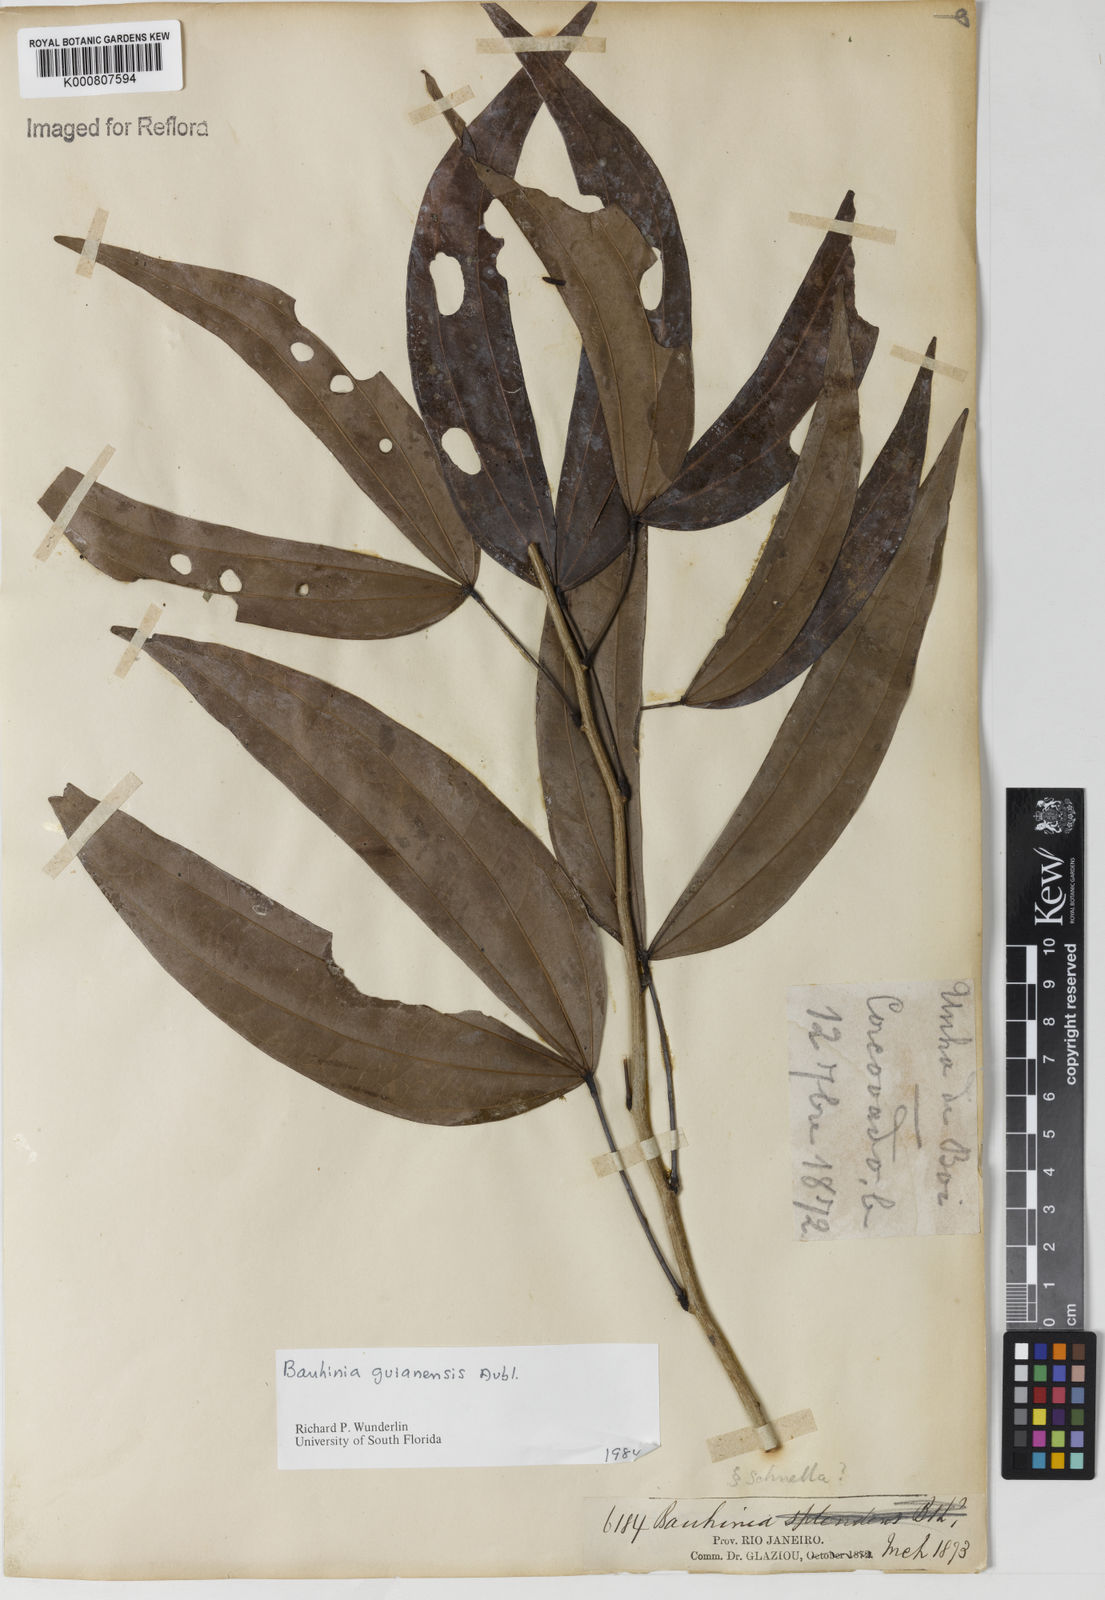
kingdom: Plantae
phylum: Tracheophyta
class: Magnoliopsida
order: Fabales
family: Fabaceae
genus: Schnella
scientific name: Schnella guianensis
